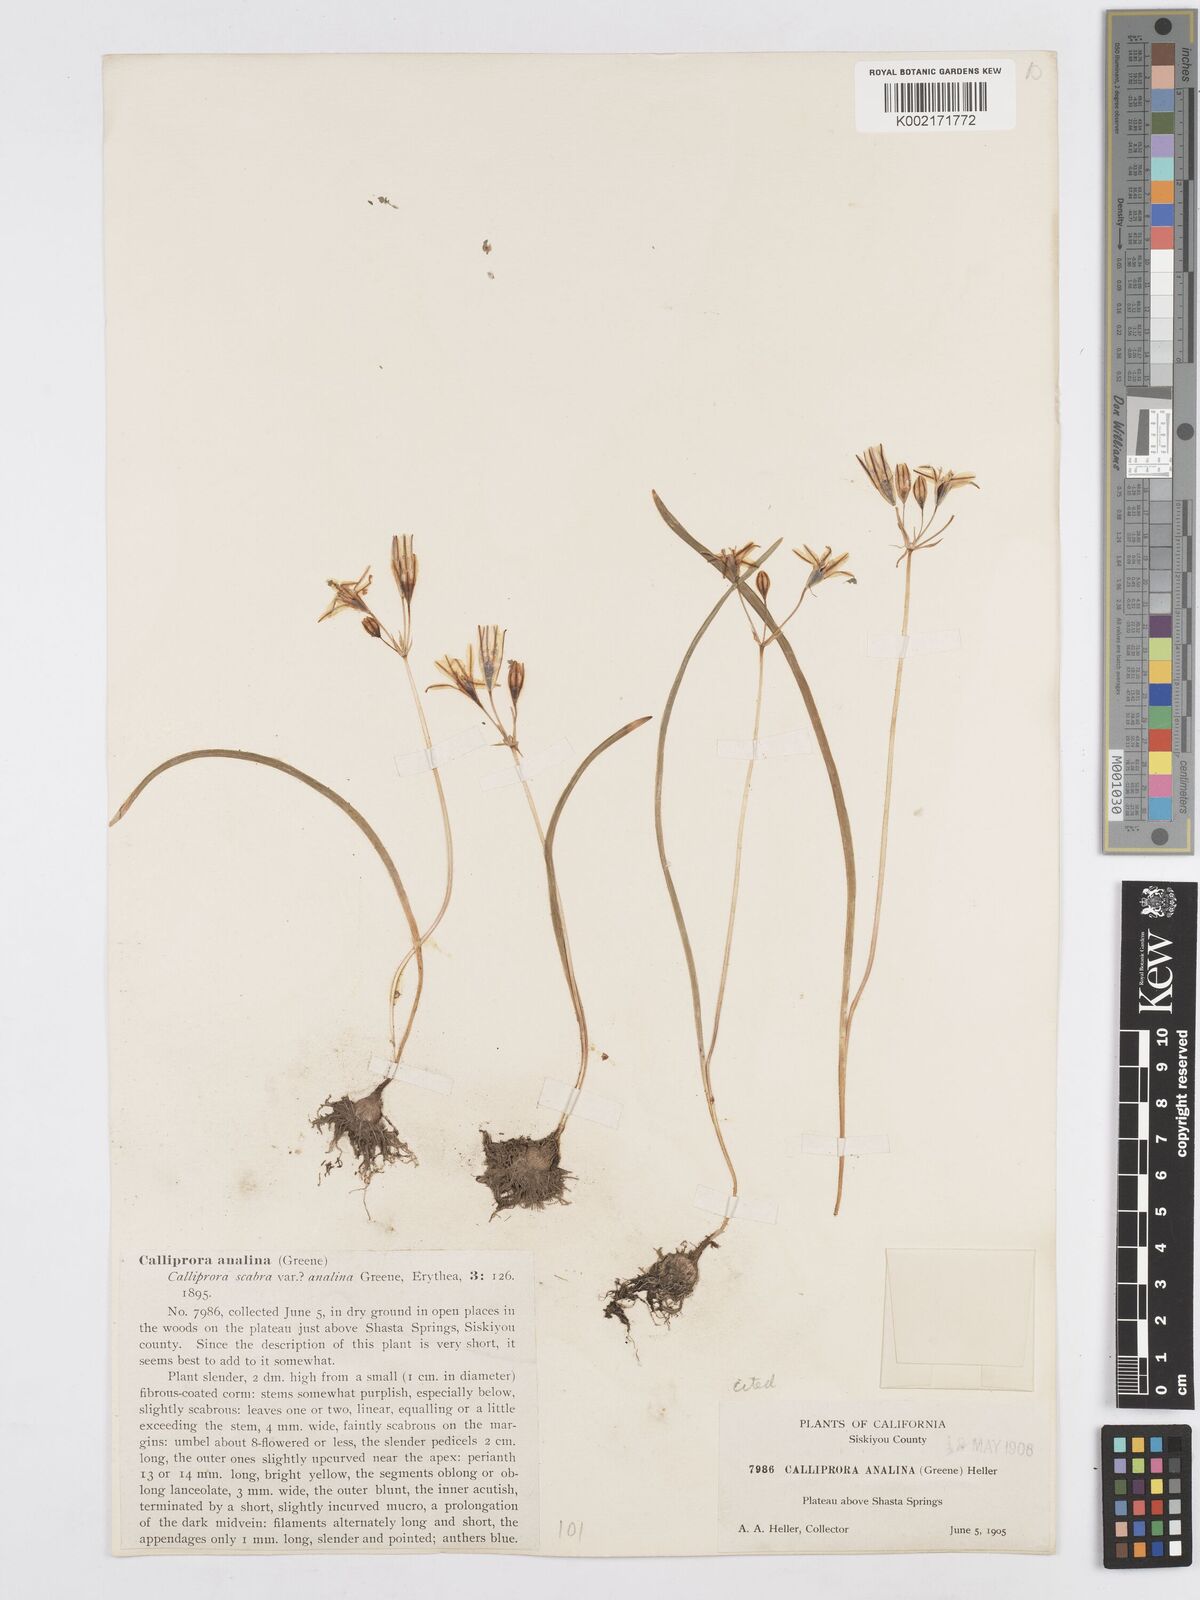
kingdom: Plantae
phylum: Tracheophyta
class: Liliopsida
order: Asparagales
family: Asparagaceae
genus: Triteleia
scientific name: Triteleia ixioides
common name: Yellow-brodiaea
